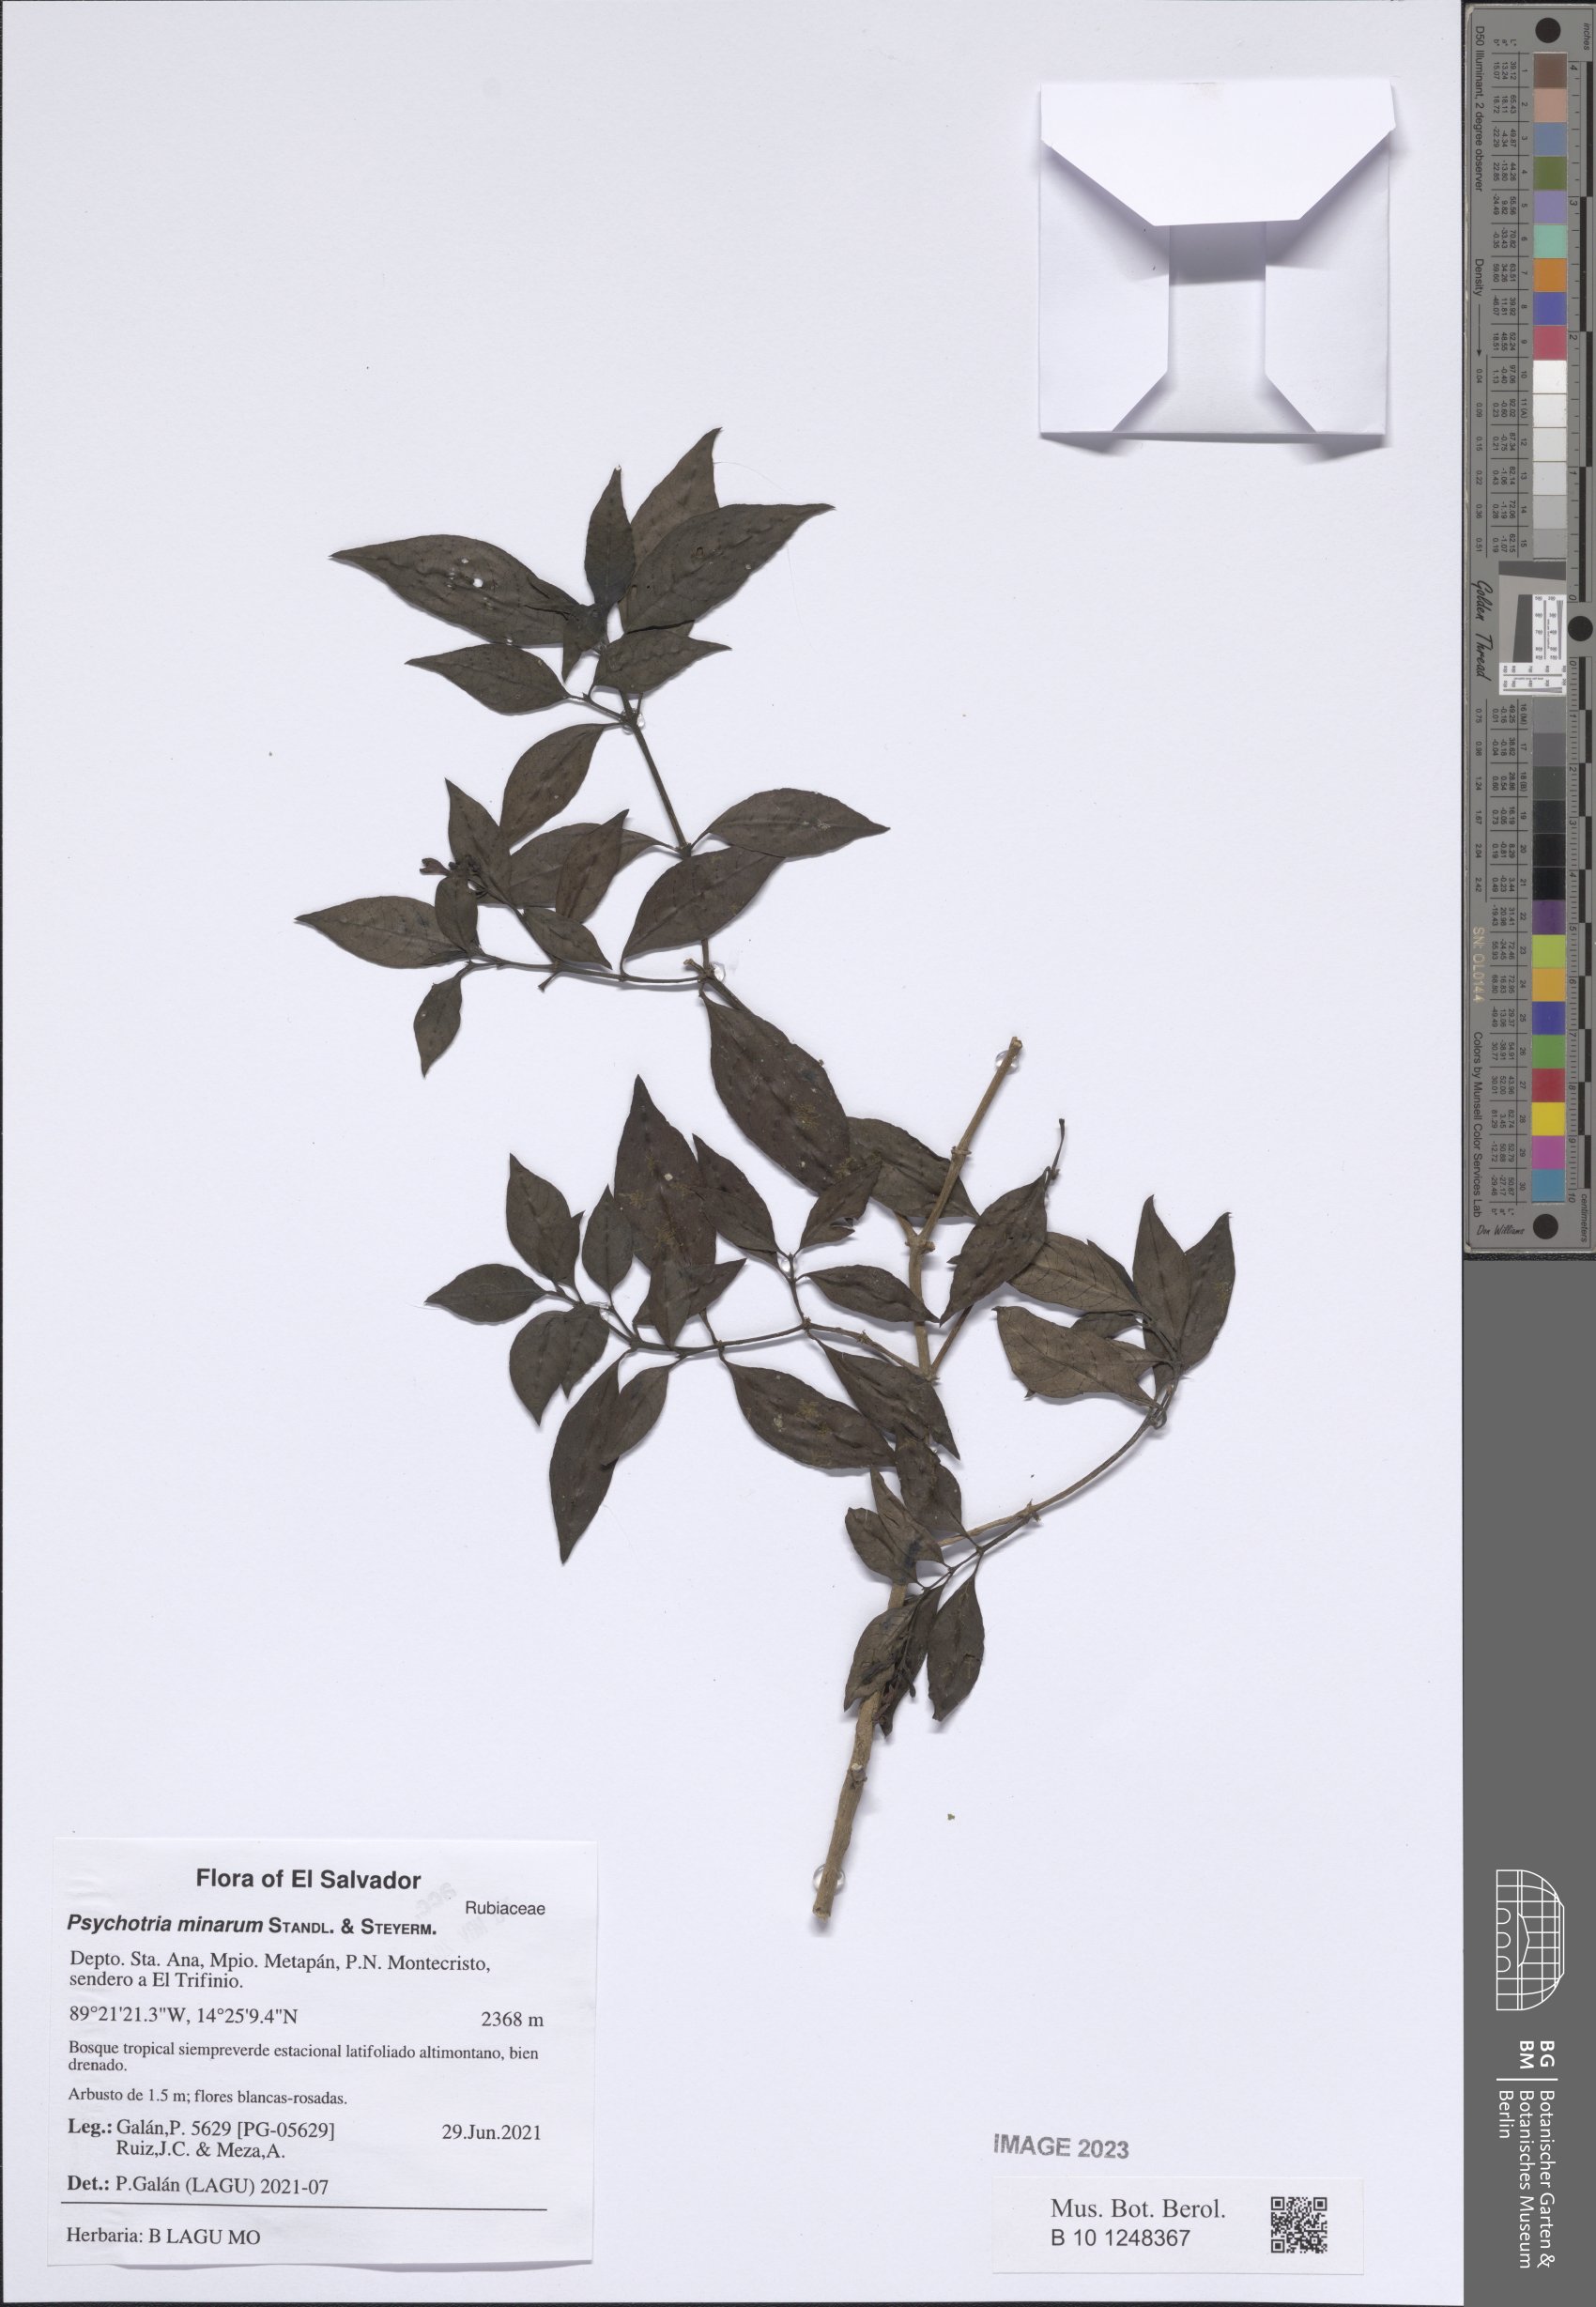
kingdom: Plantae
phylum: Tracheophyta
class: Magnoliopsida
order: Gentianales
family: Rubiaceae
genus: Palicourea
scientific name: Palicourea minarum
